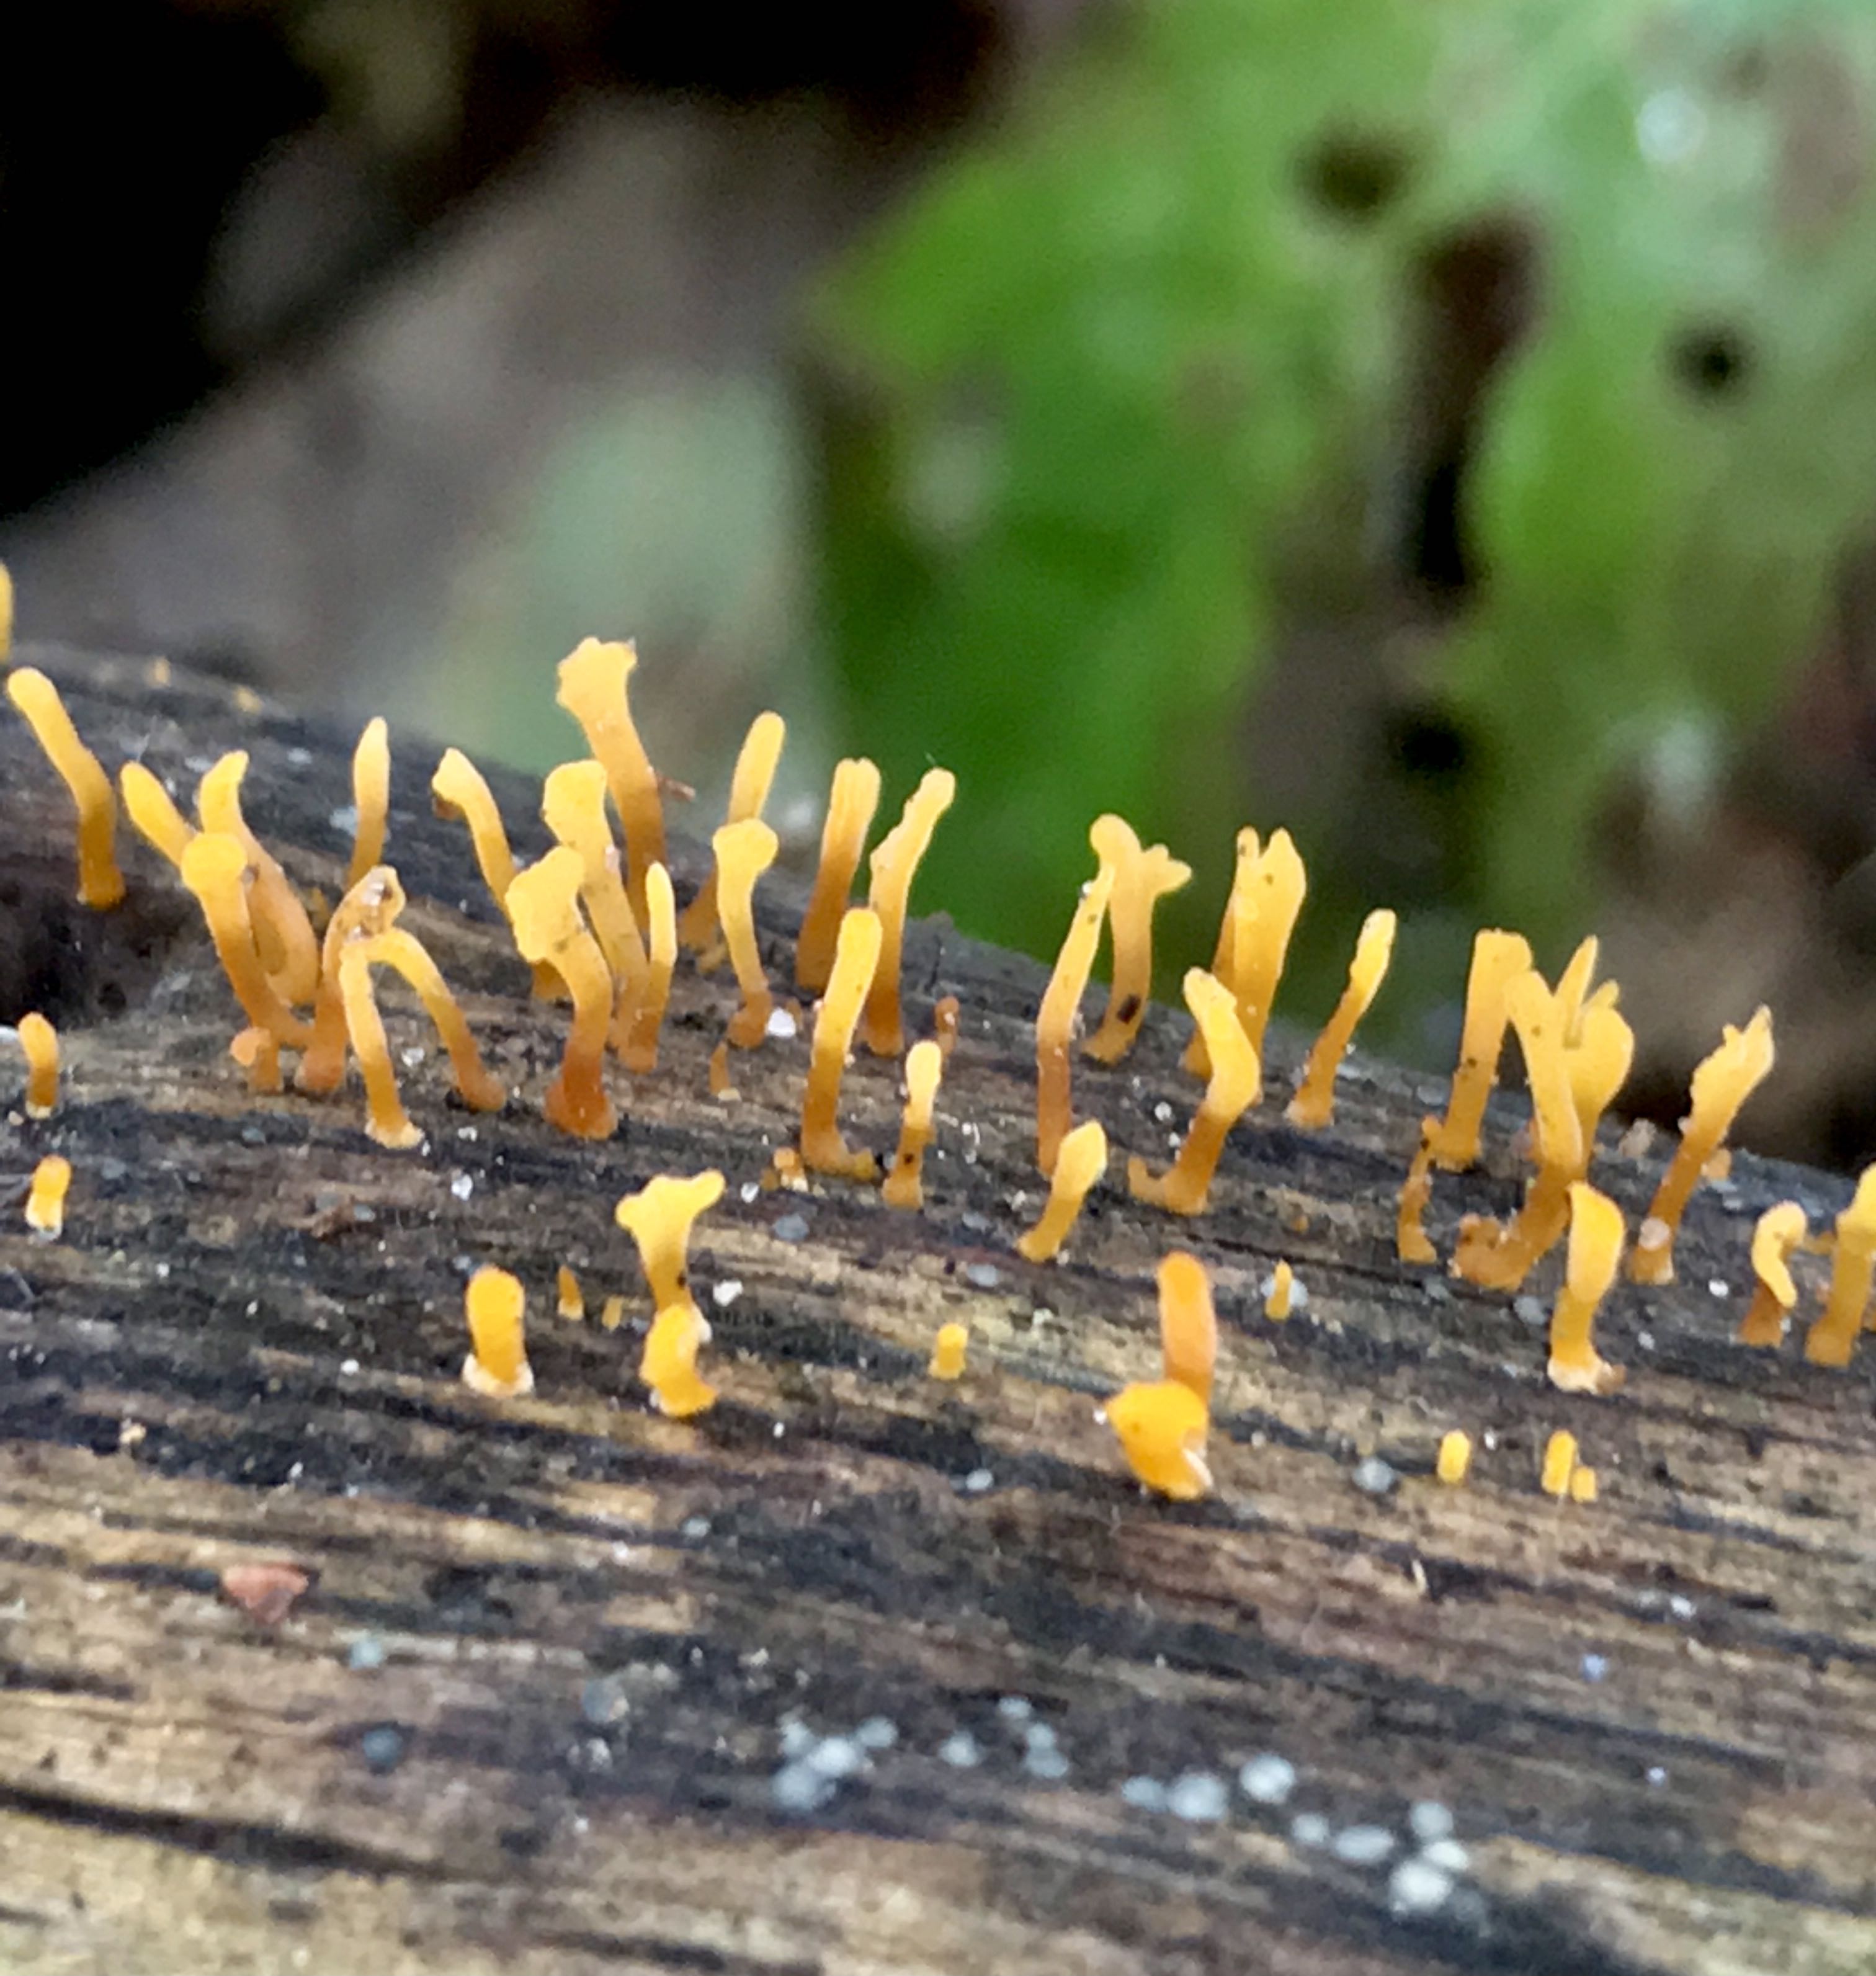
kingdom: Fungi
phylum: Basidiomycota
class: Dacrymycetes
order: Dacrymycetales
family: Dacrymycetaceae
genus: Calocera
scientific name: Calocera cornea
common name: liden guldgaffel
